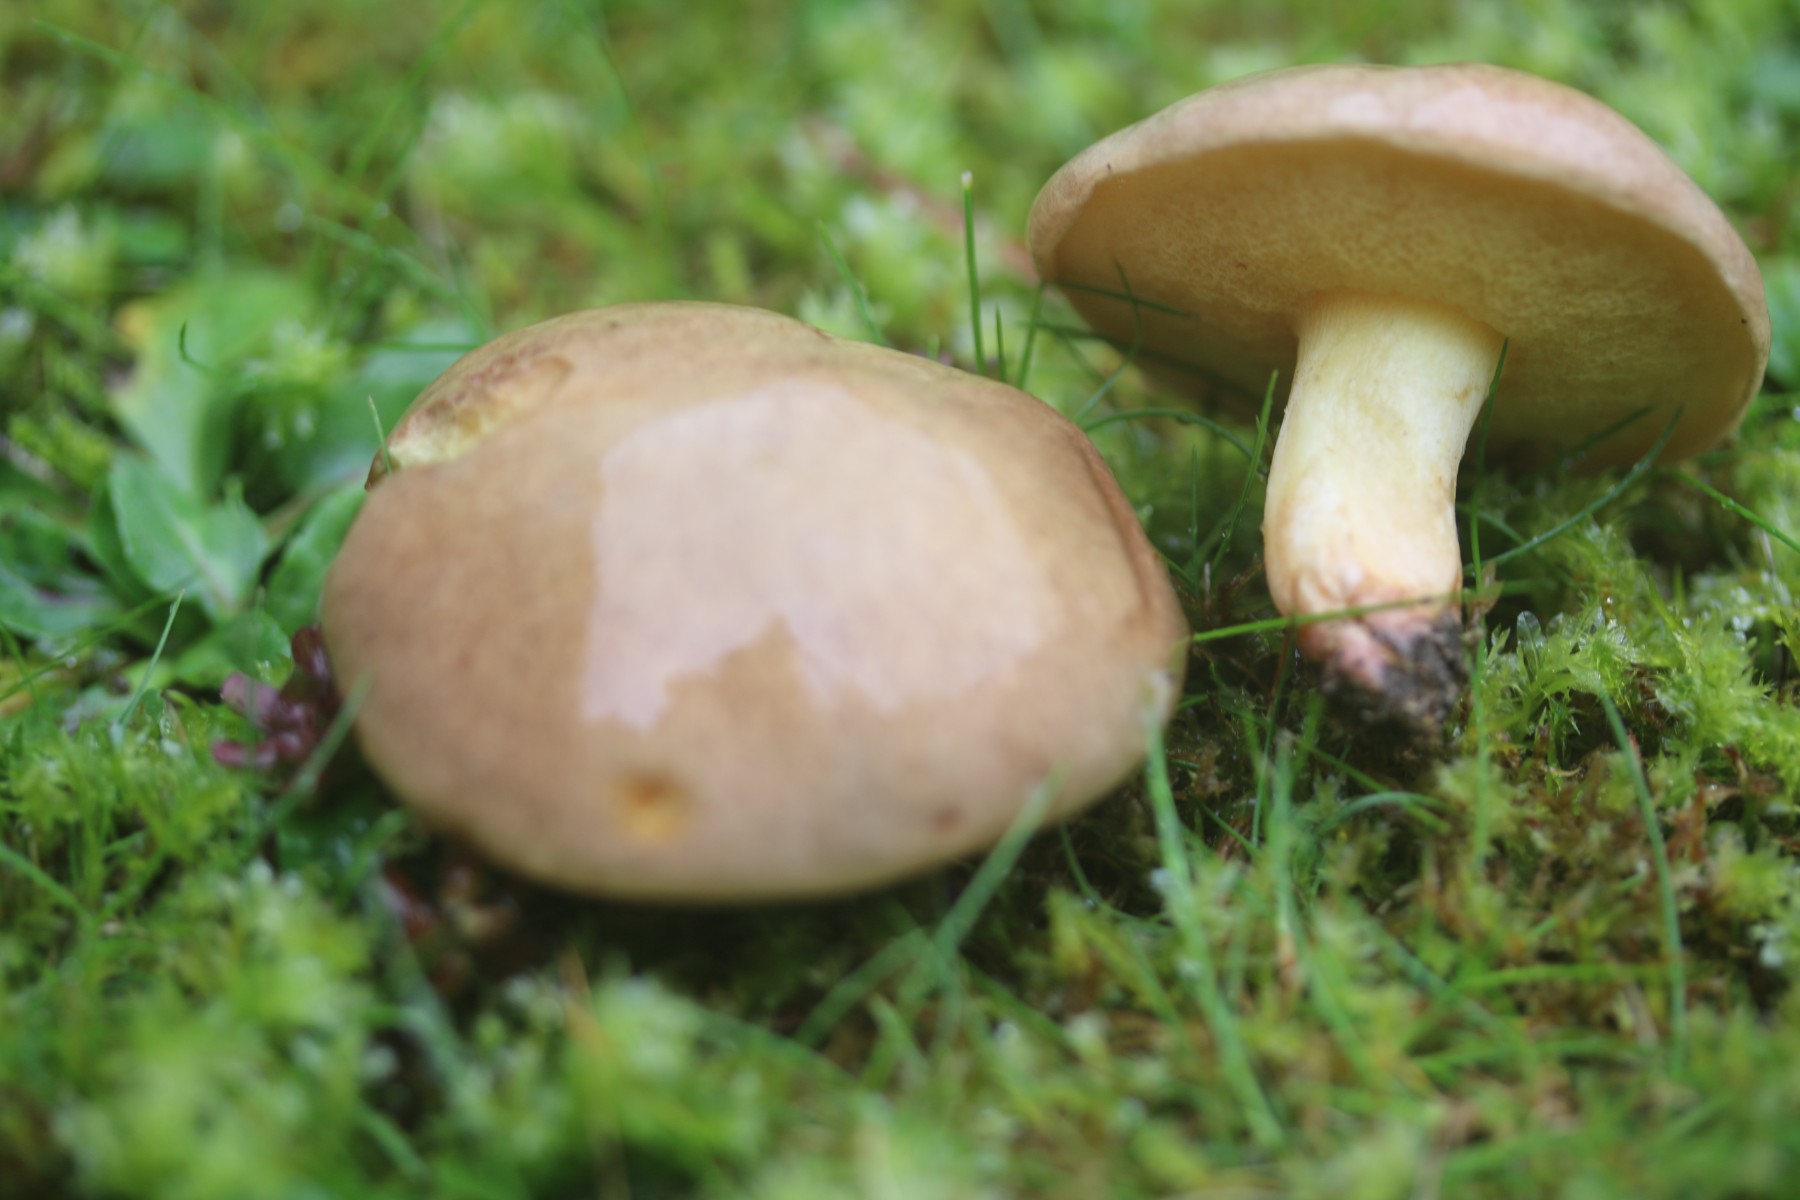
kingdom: Fungi
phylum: Basidiomycota
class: Agaricomycetes
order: Boletales
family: Suillaceae
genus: Suillus
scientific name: Suillus collinitus
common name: rosafodet slimrørhat
